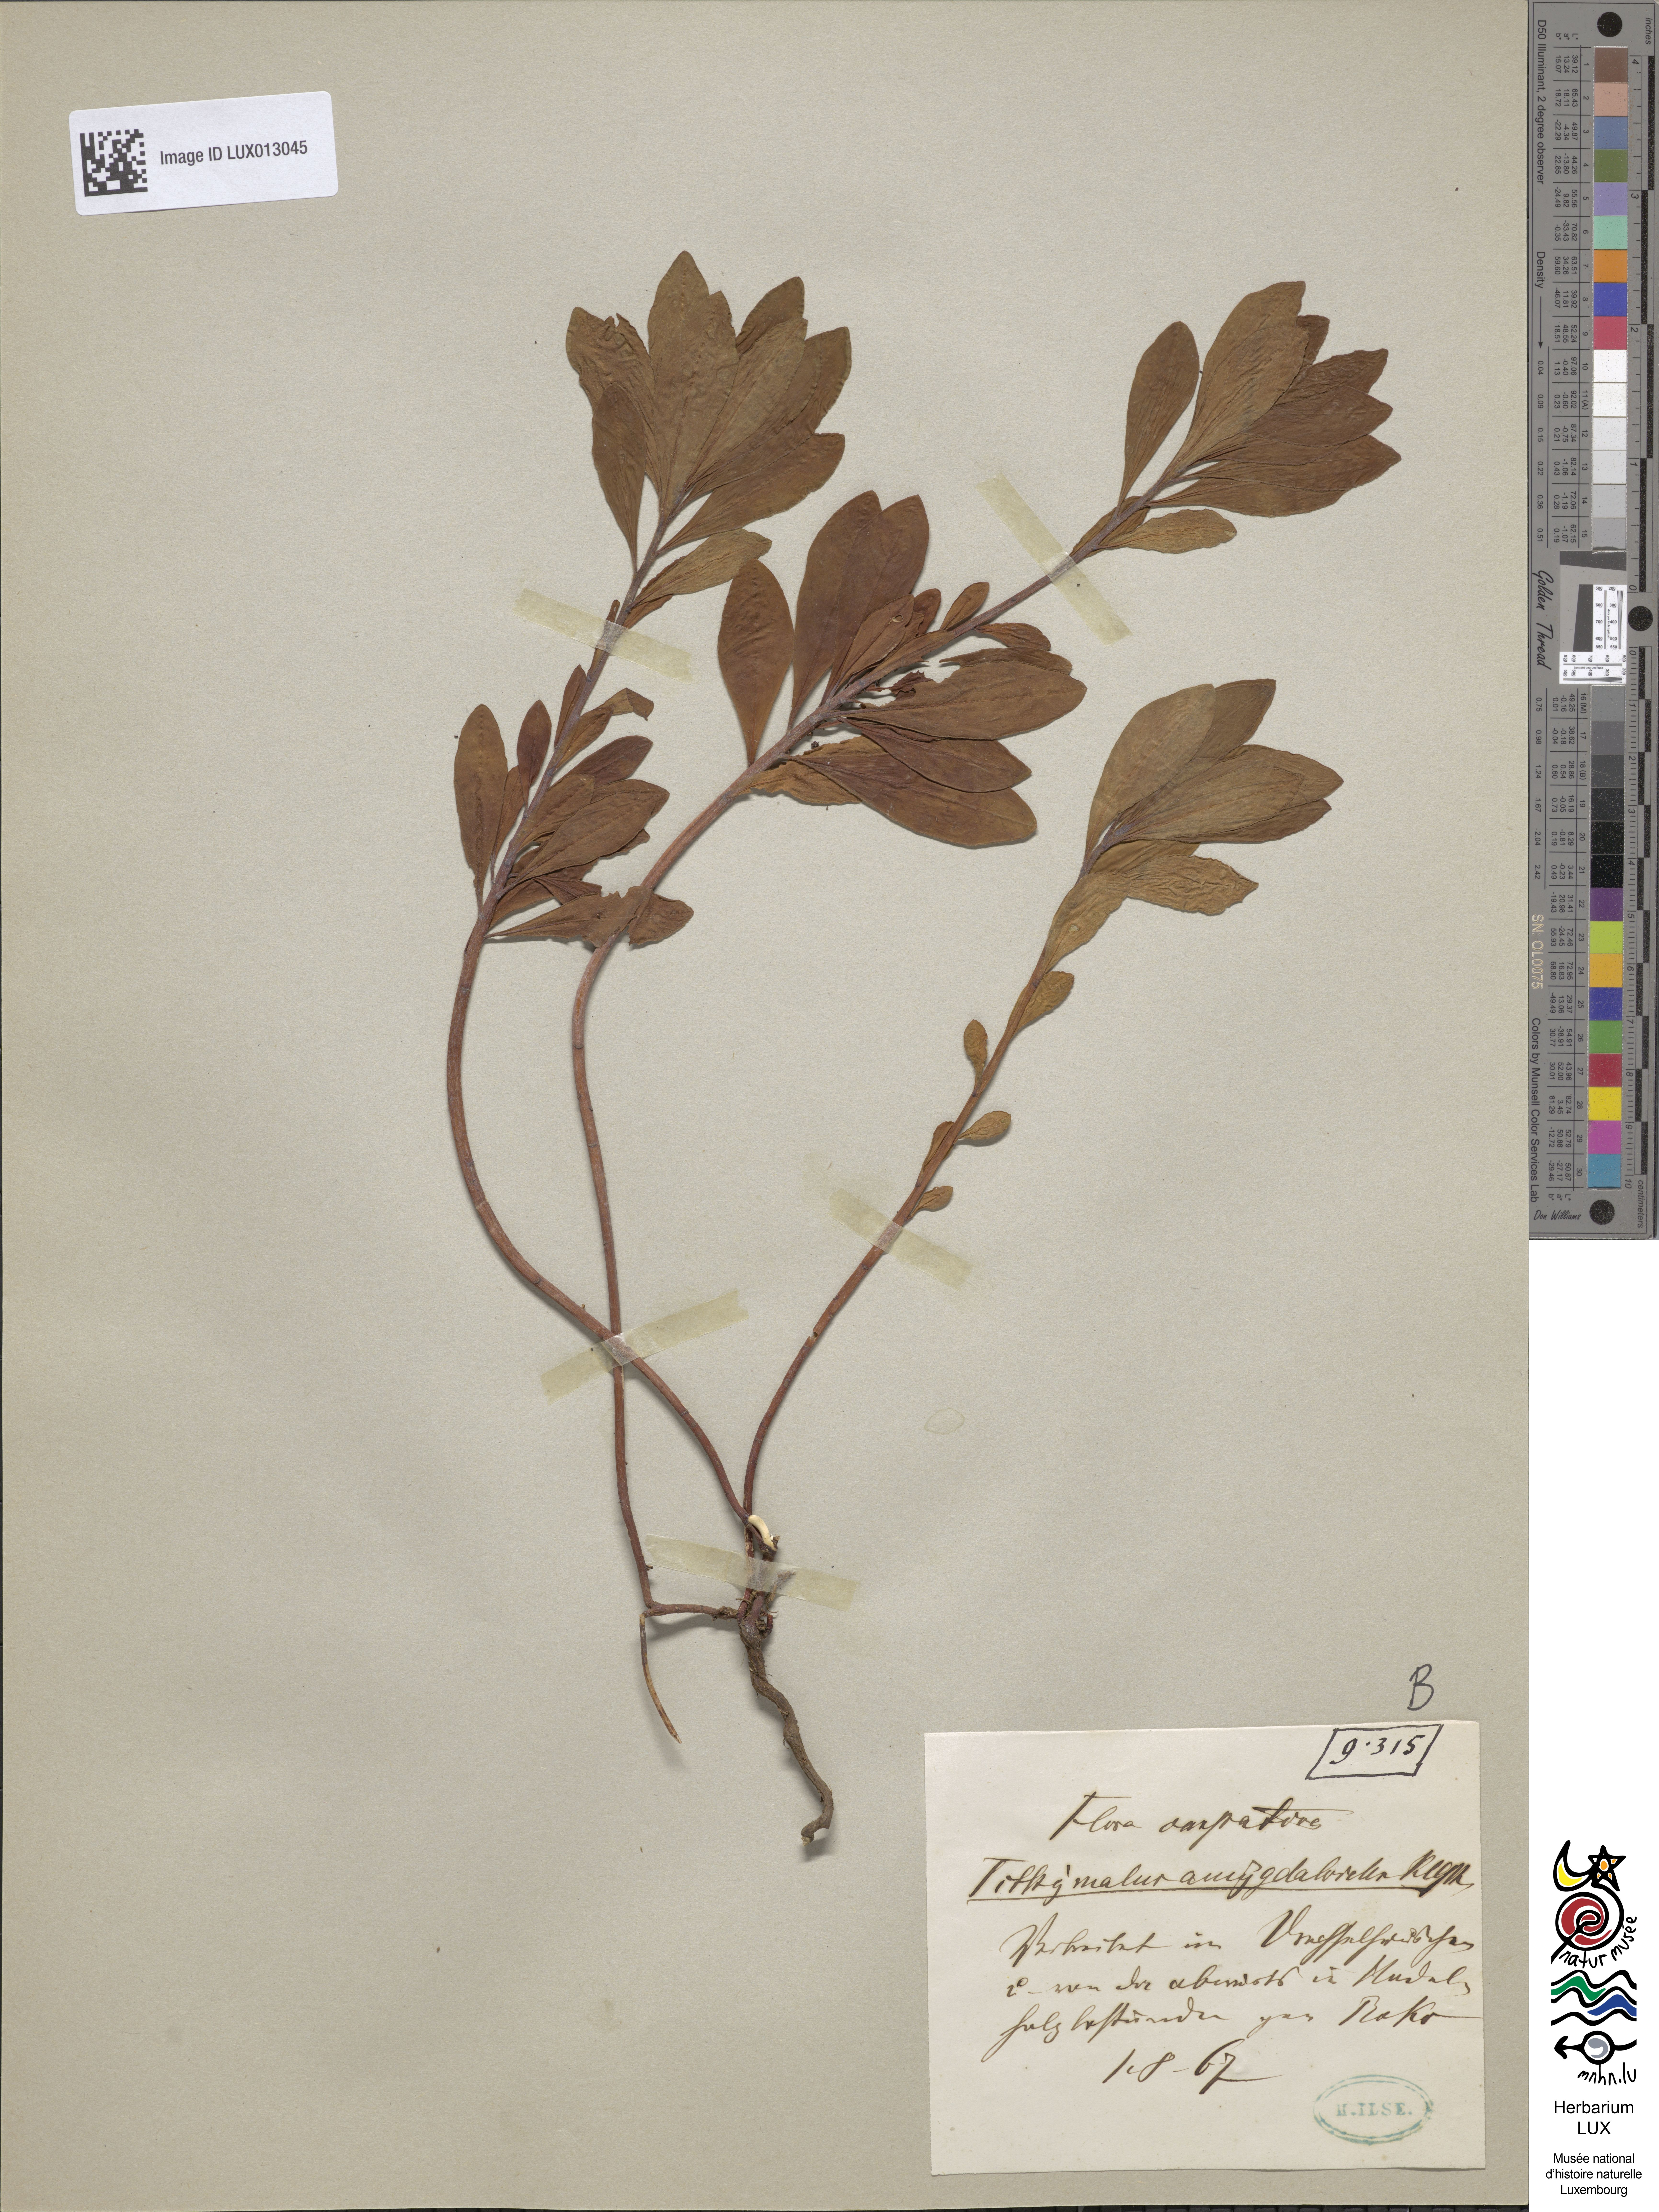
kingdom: Plantae
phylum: Tracheophyta
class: Magnoliopsida
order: Malpighiales
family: Euphorbiaceae
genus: Euphorbia
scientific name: Euphorbia amygdaloides
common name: Wood spurge
